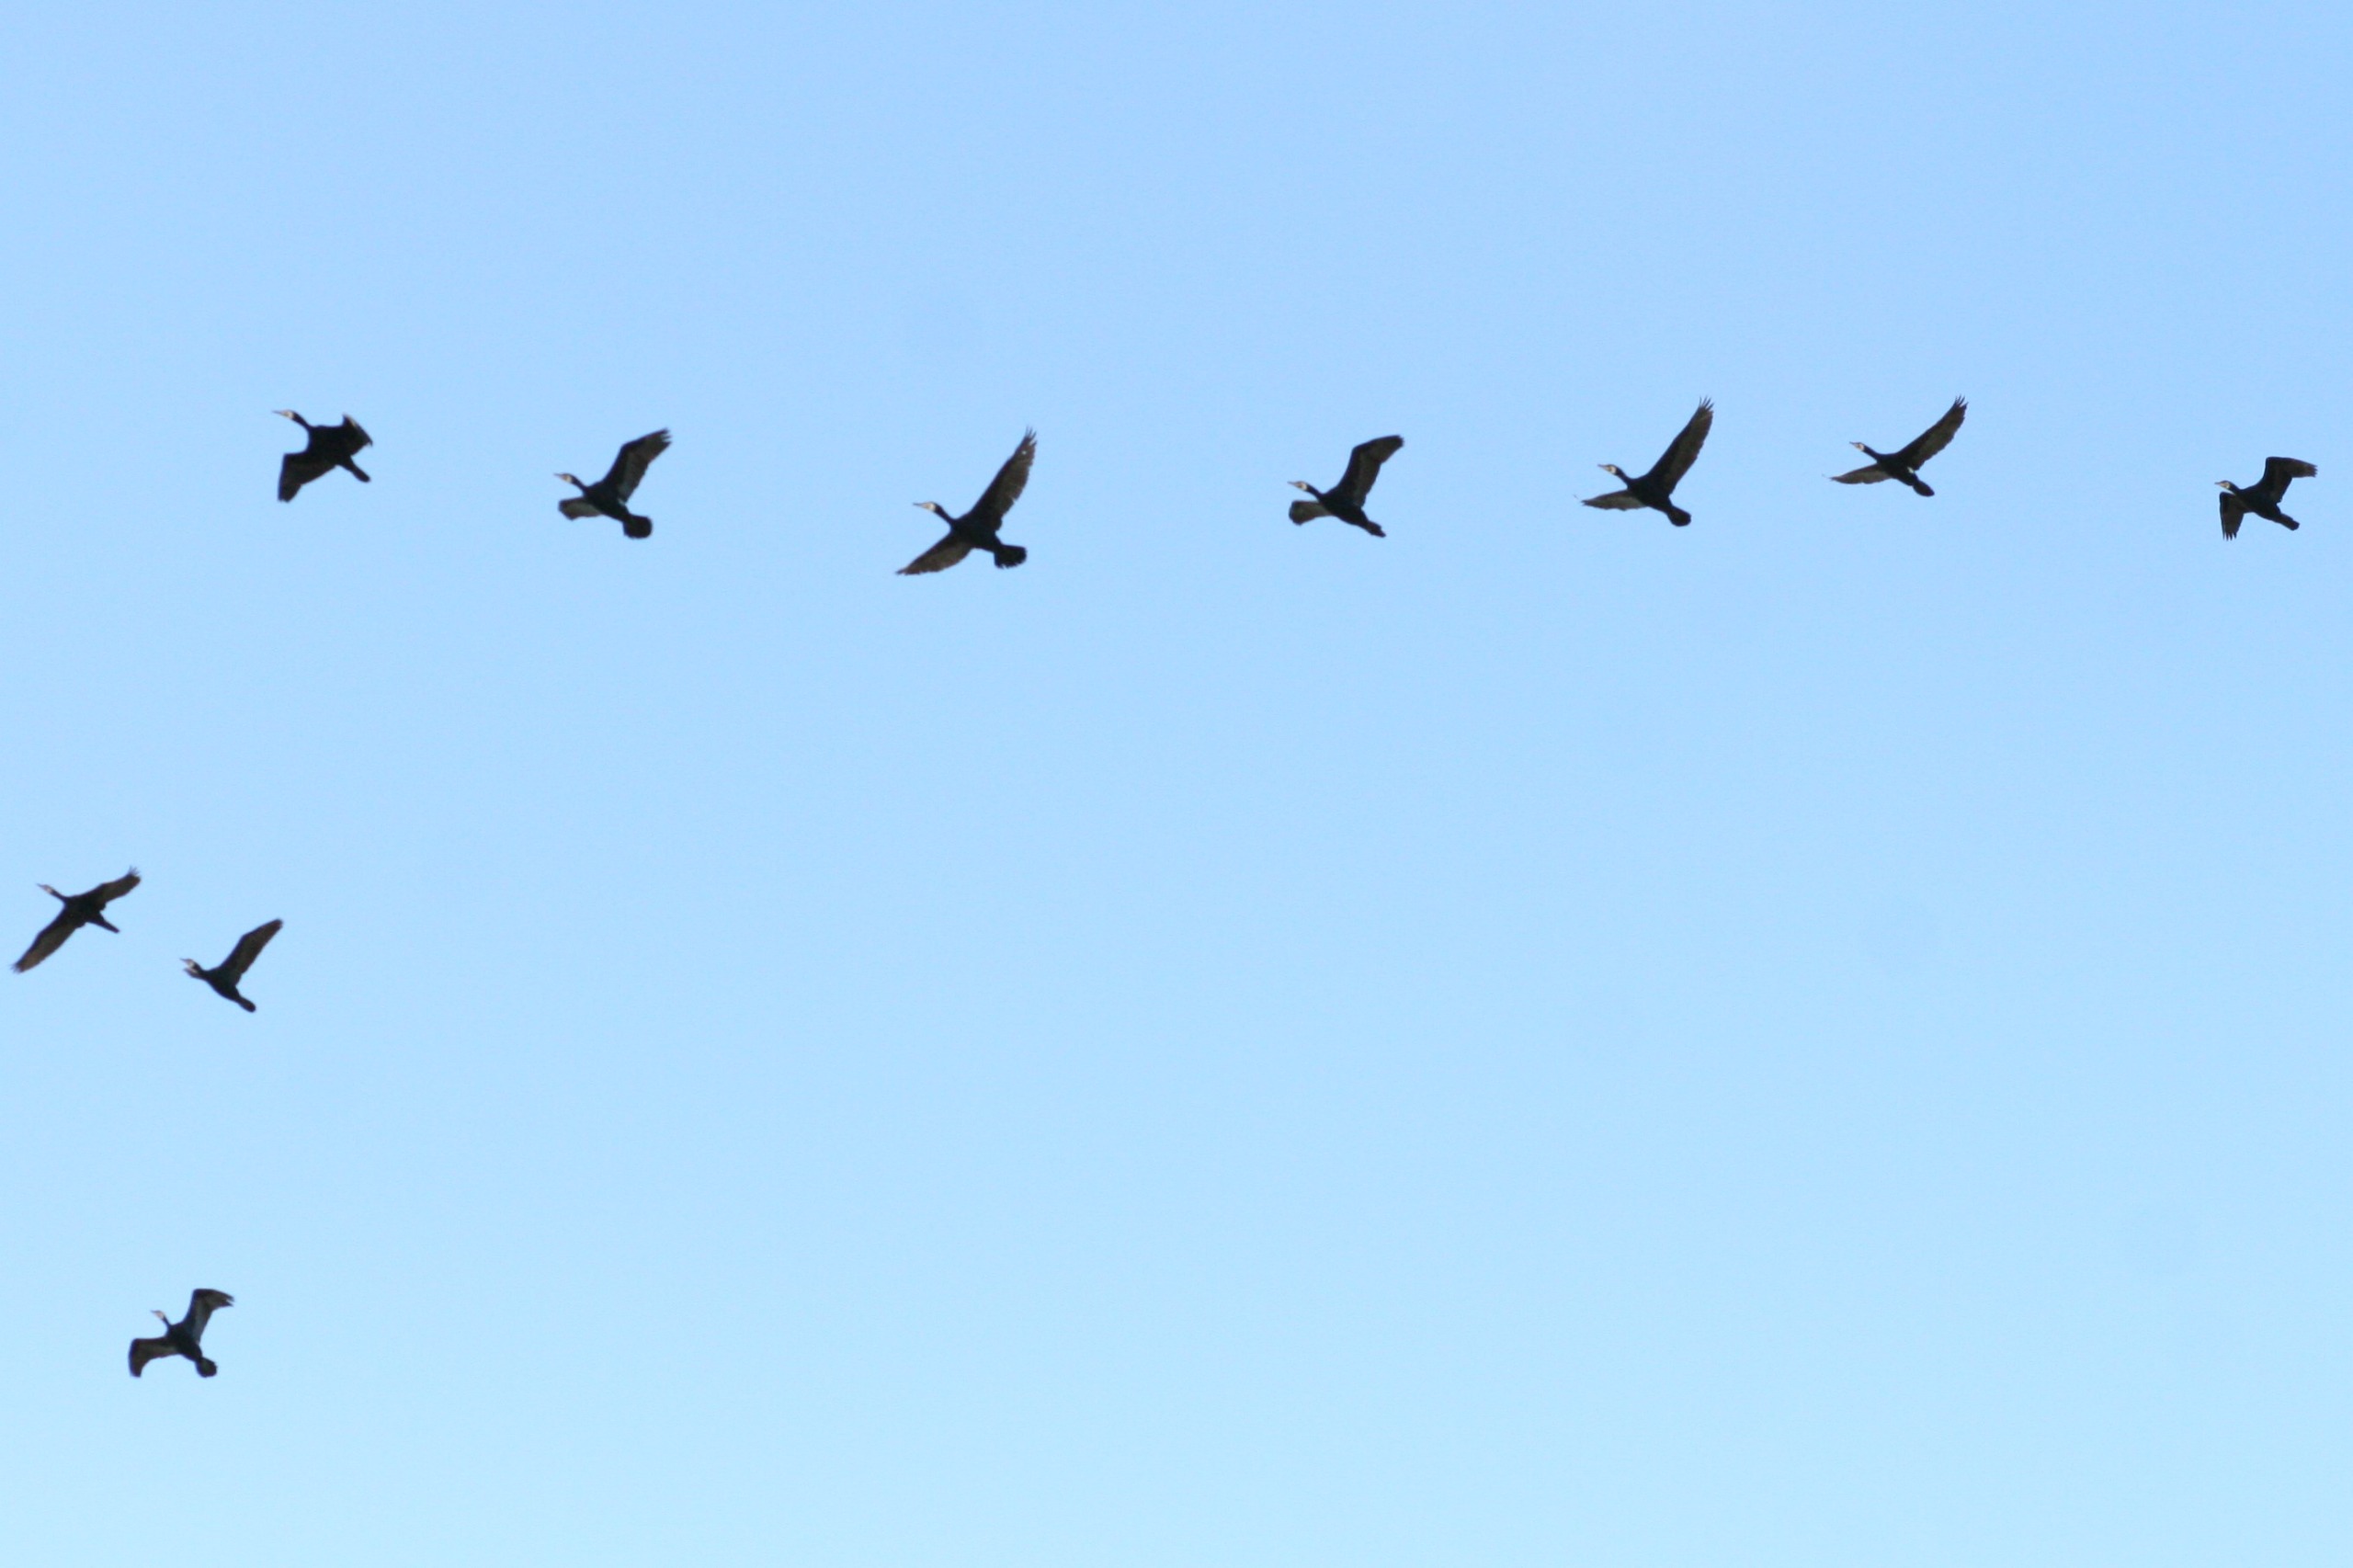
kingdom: Animalia
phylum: Chordata
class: Aves
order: Suliformes
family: Phalacrocoracidae
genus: Phalacrocorax
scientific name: Phalacrocorax carbo
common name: Skarv
